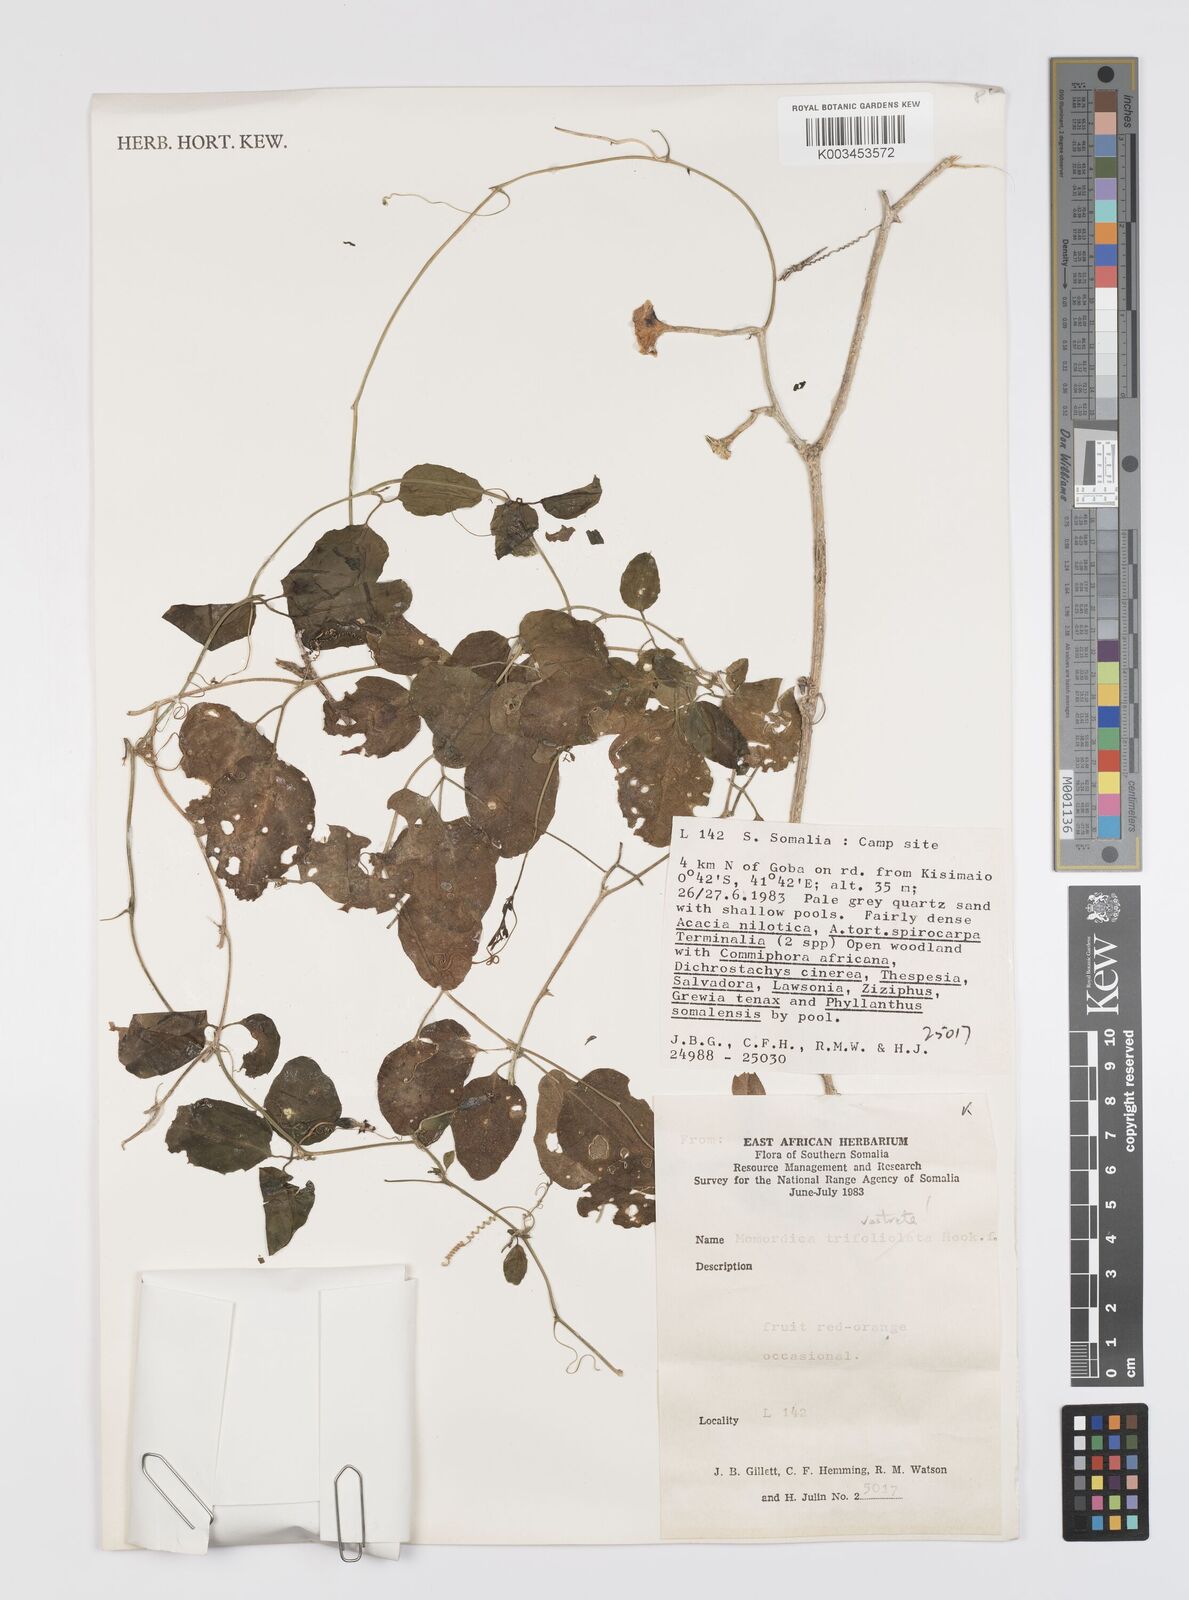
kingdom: Plantae
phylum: Tracheophyta
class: Magnoliopsida
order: Cucurbitales
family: Cucurbitaceae
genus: Momordica
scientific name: Momordica rostrata
